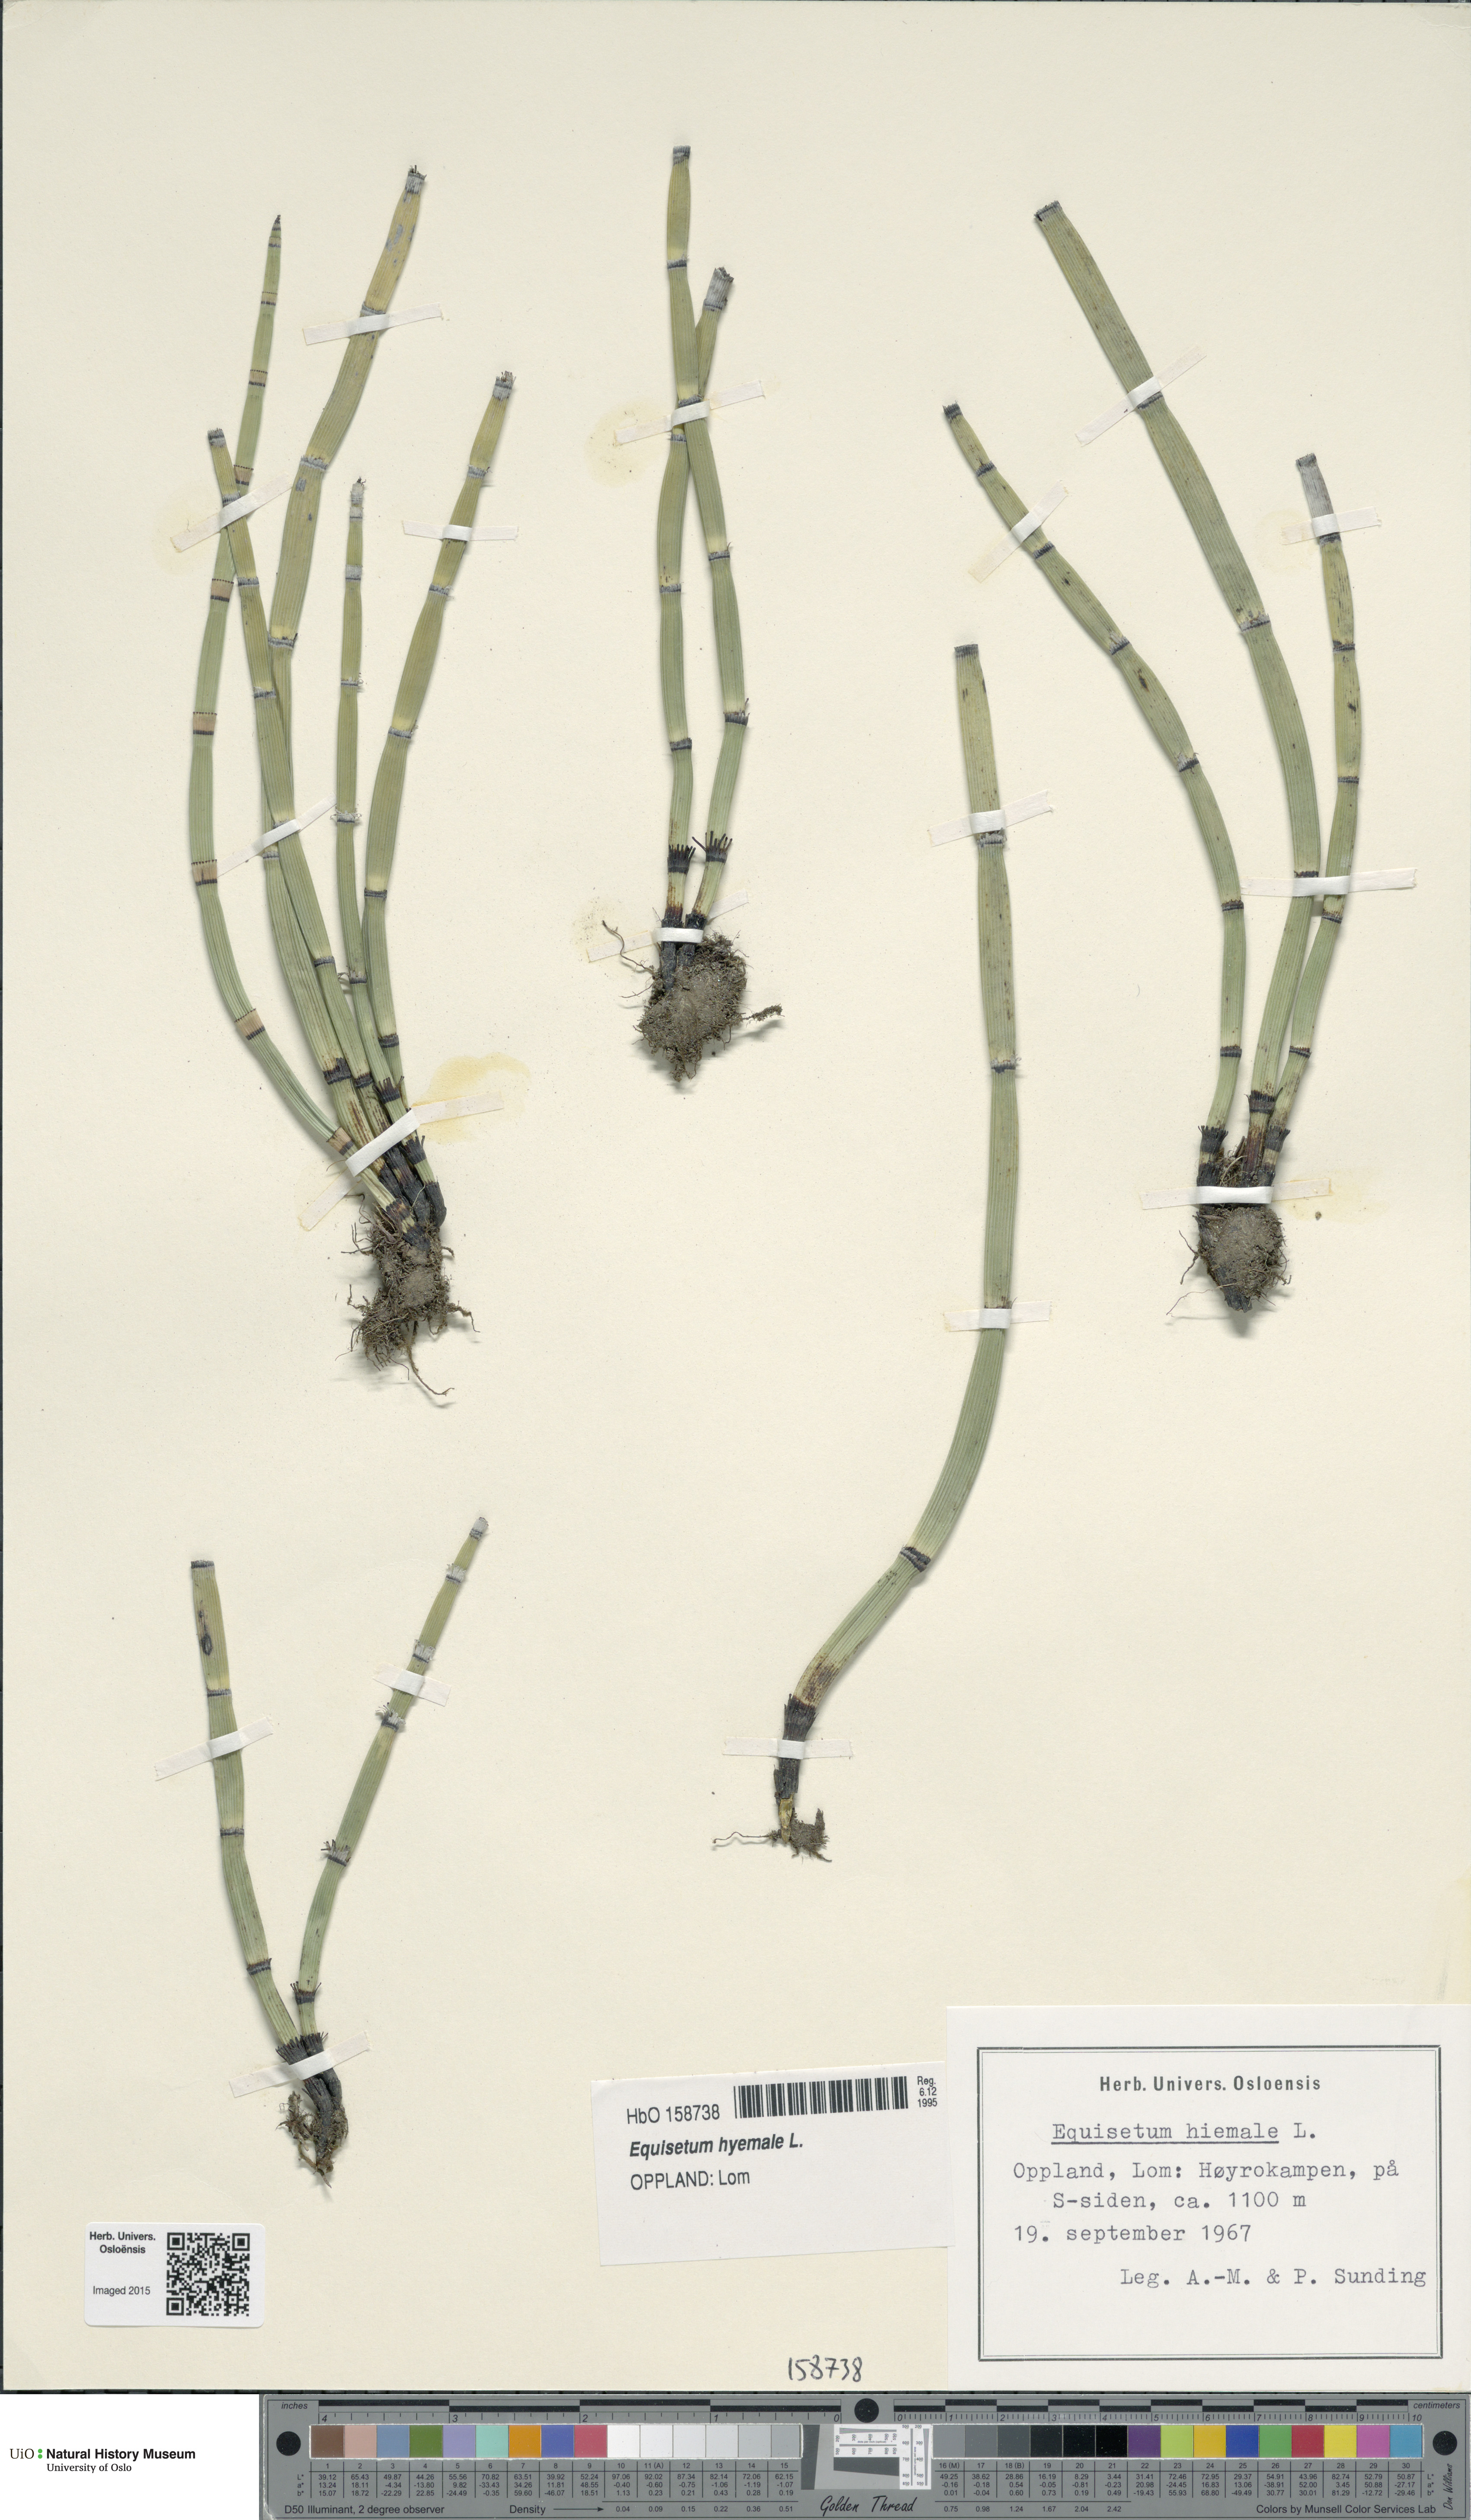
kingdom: Plantae
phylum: Tracheophyta
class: Polypodiopsida
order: Equisetales
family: Equisetaceae
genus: Equisetum
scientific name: Equisetum hyemale
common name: Rough horsetail
